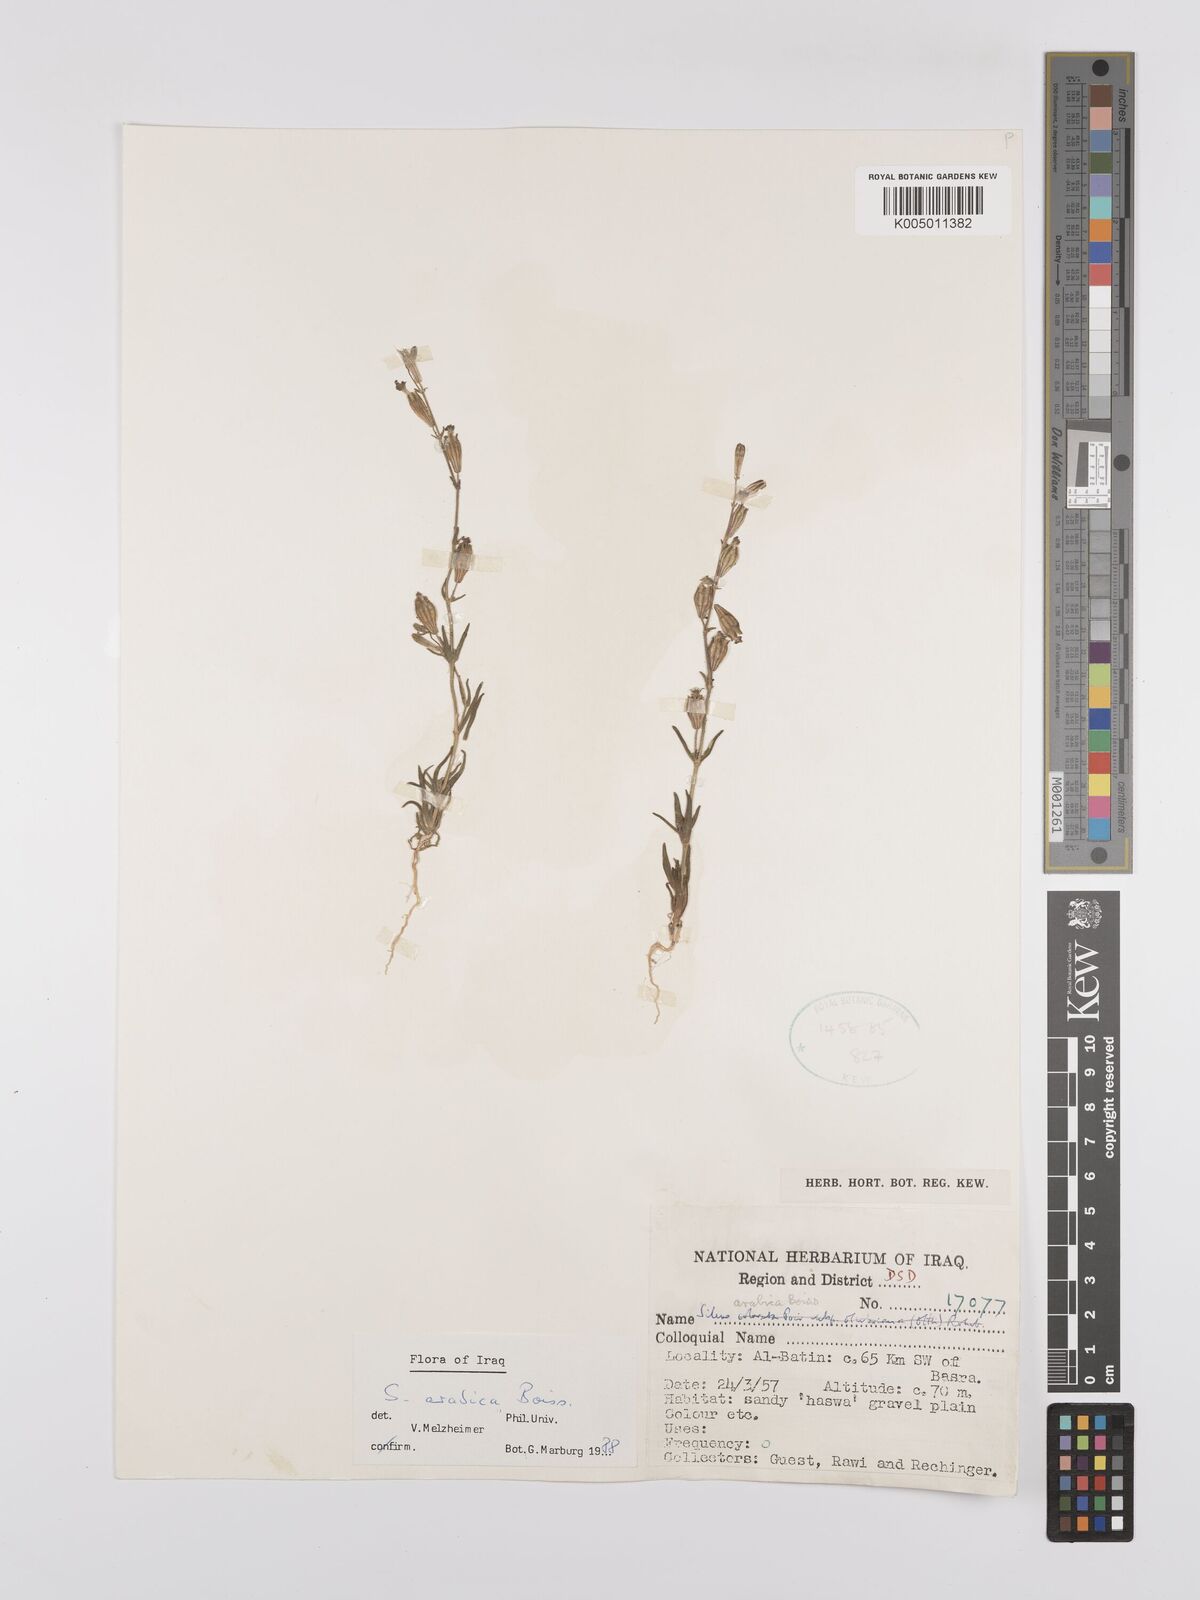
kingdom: Plantae
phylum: Tracheophyta
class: Magnoliopsida
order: Caryophyllales
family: Caryophyllaceae
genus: Silene
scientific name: Silene arabica
